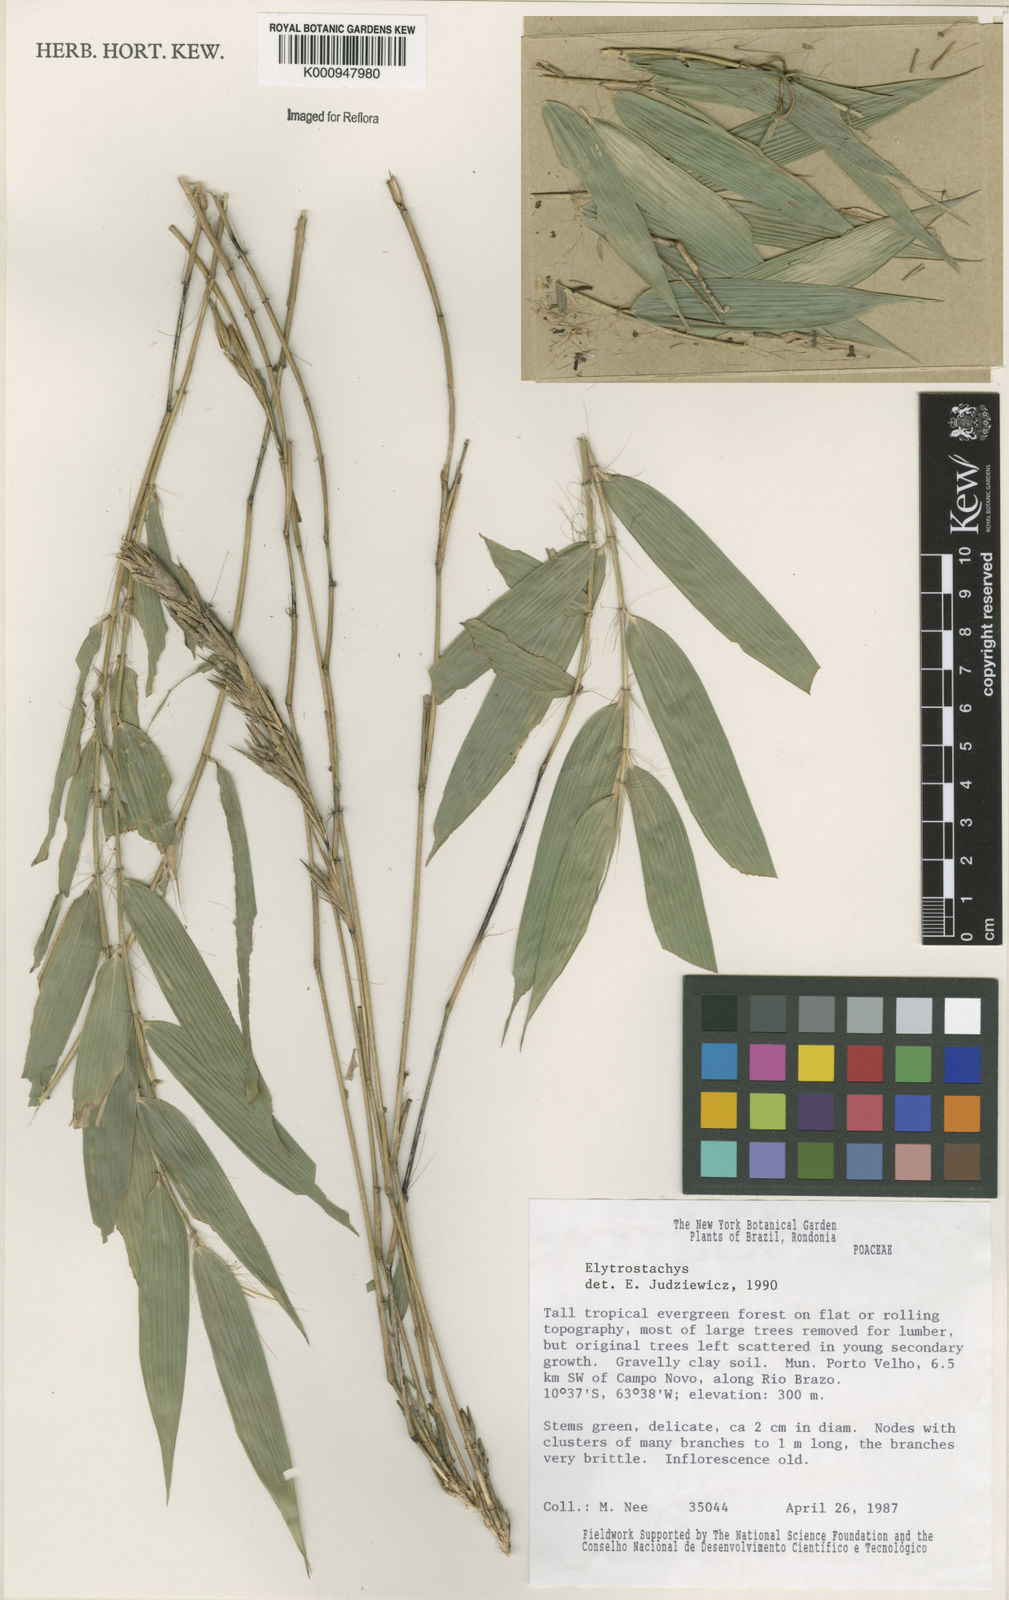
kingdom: Plantae
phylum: Tracheophyta
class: Liliopsida
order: Poales
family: Poaceae
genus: Elytrostachys
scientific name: Elytrostachys
